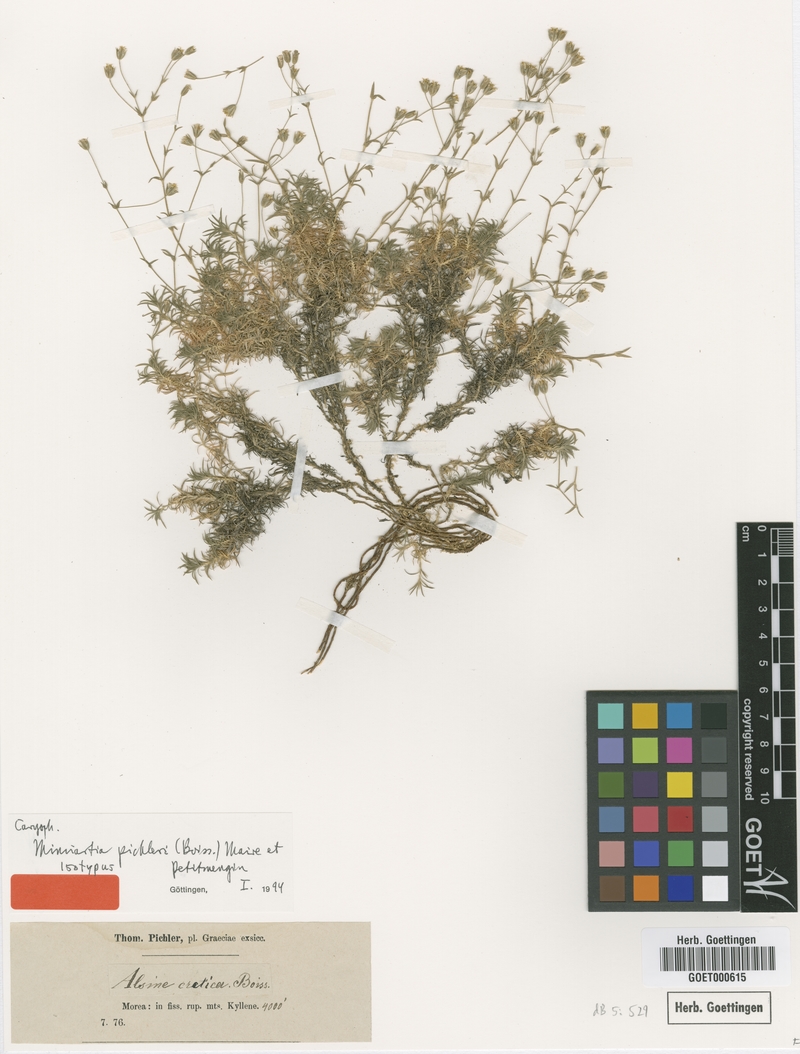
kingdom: Plantae
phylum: Tracheophyta
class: Magnoliopsida
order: Caryophyllales
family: Caryophyllaceae
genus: Sabulina
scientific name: Sabulina pichleri
